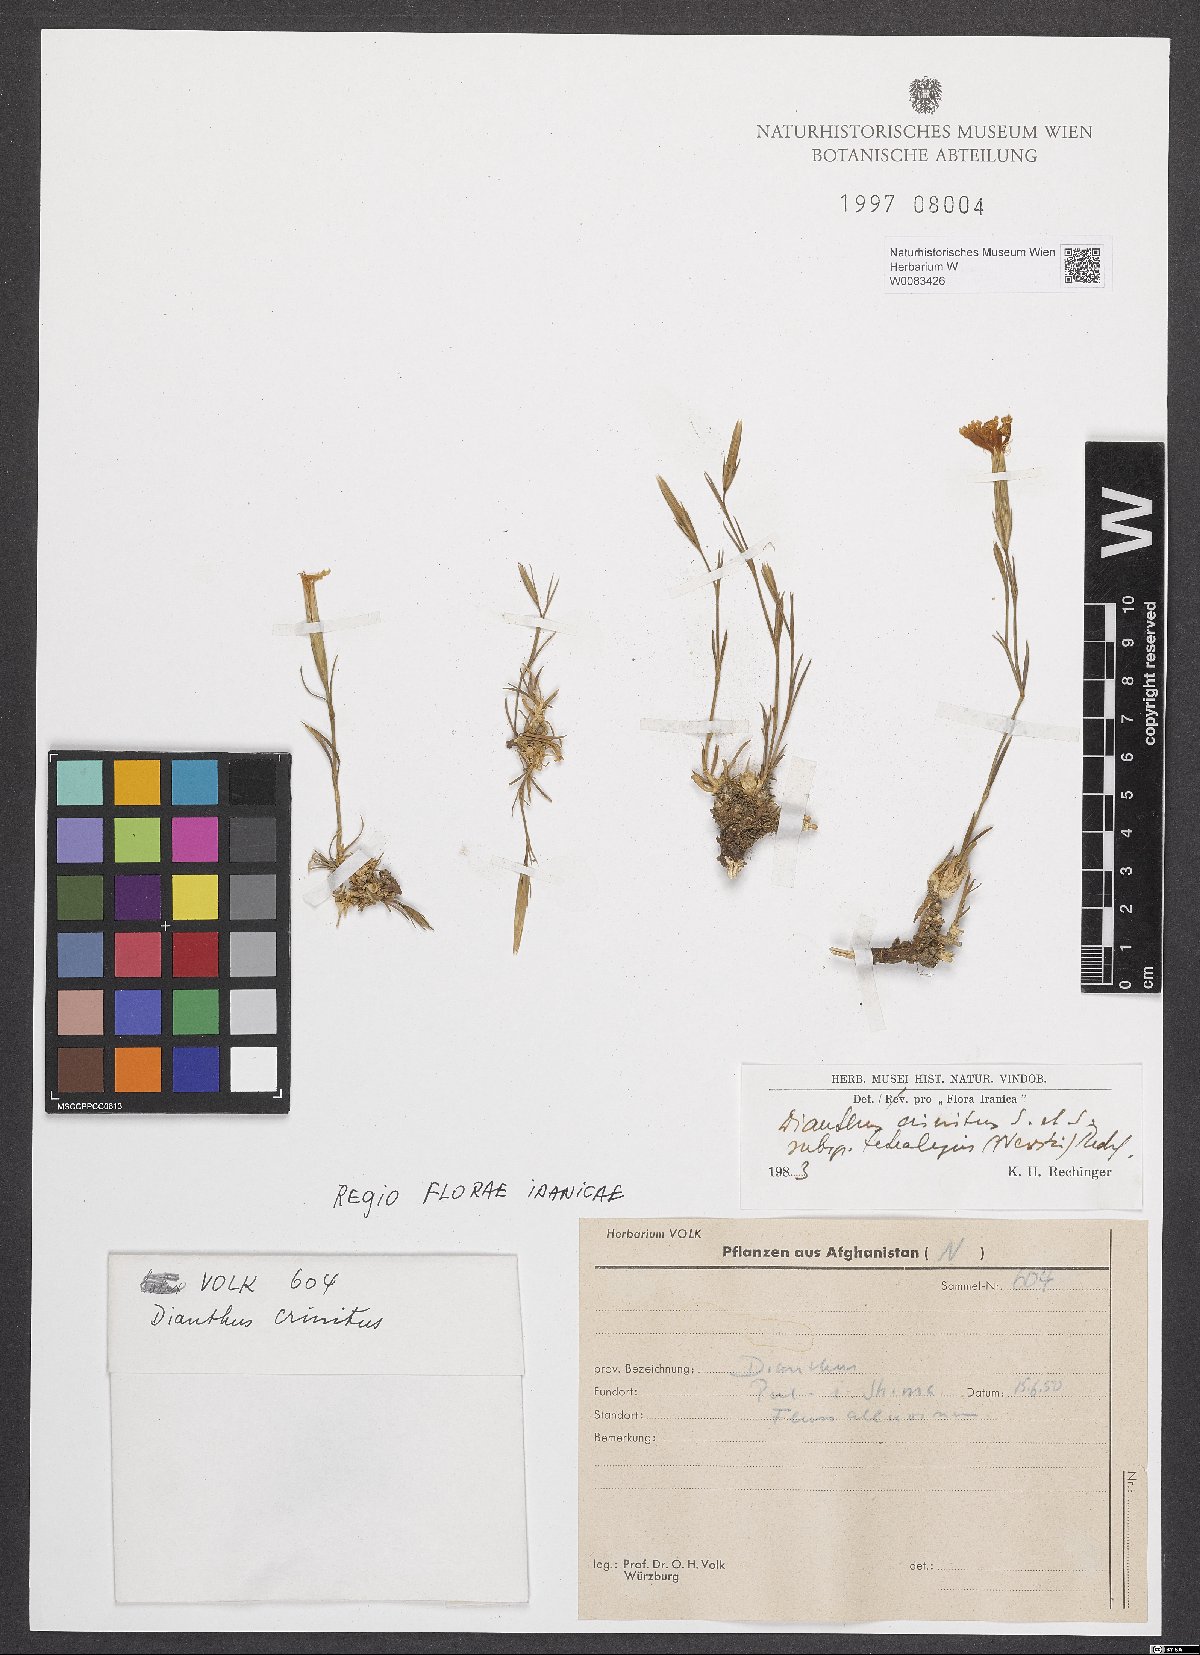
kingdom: Plantae
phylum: Tracheophyta
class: Magnoliopsida
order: Caryophyllales
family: Caryophyllaceae
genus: Dianthus
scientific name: Dianthus crinitus
